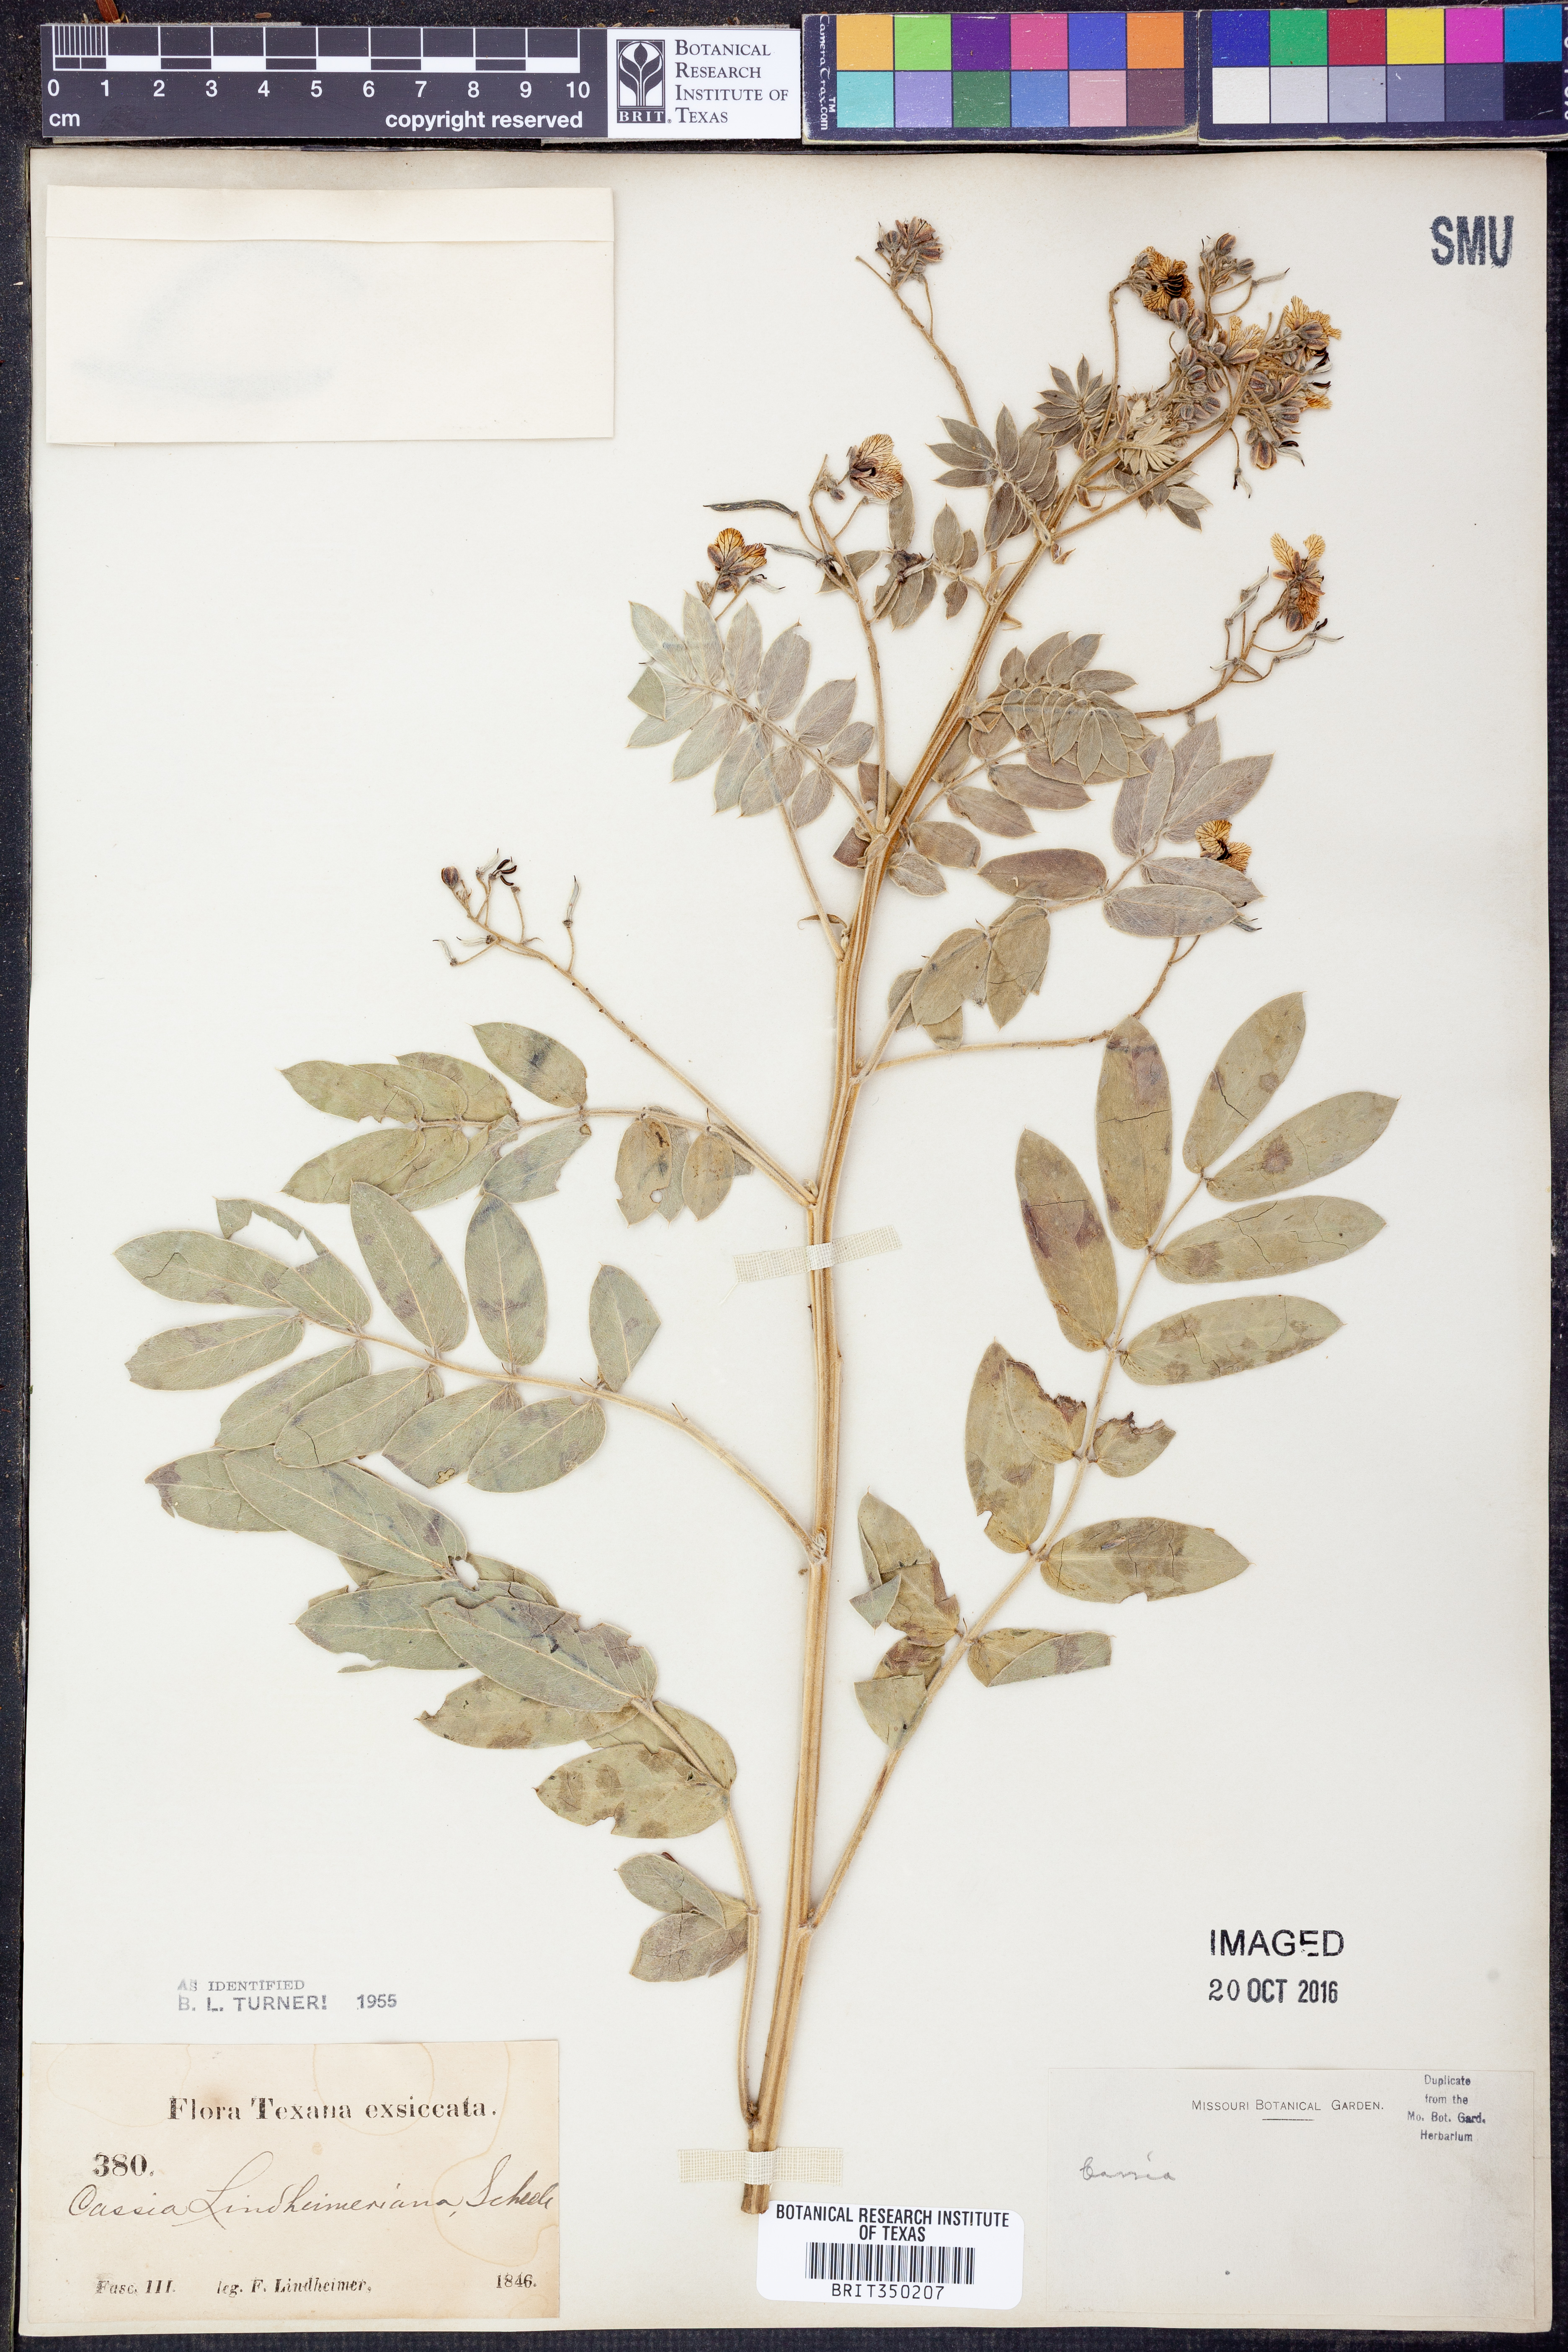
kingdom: Plantae
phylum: Tracheophyta
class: Magnoliopsida
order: Fabales
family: Fabaceae
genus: Senna
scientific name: Senna lindheimeriana
